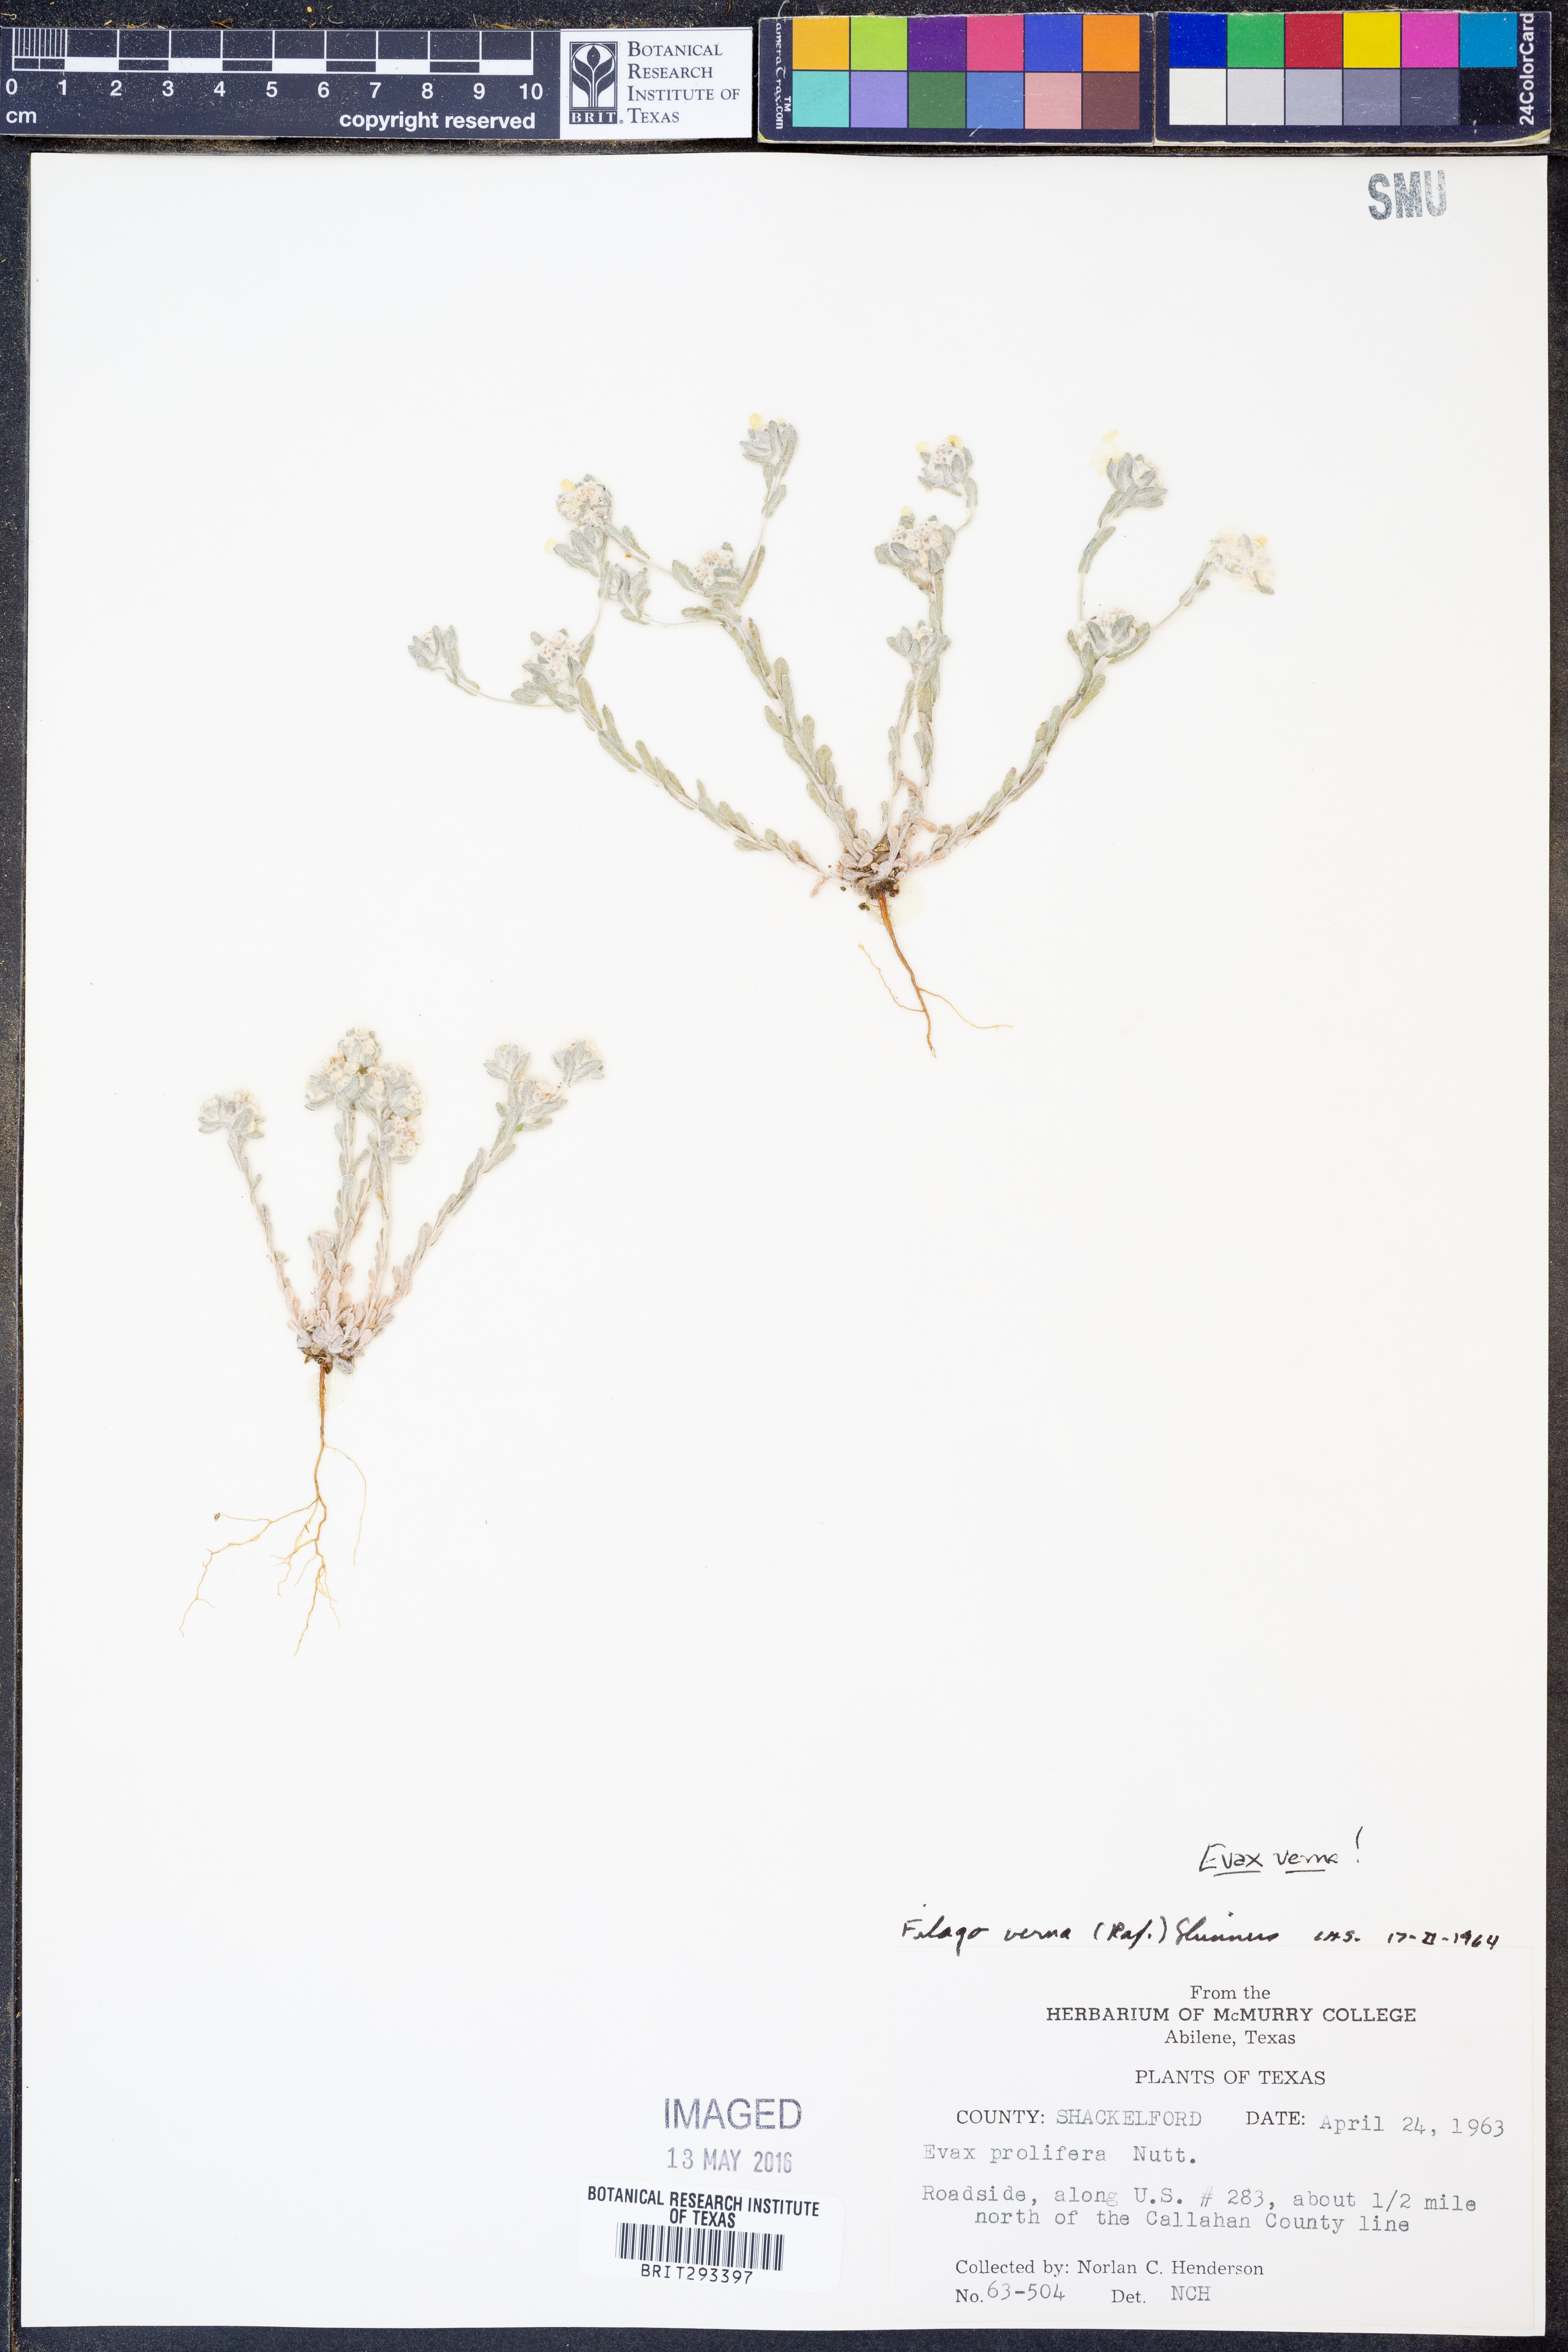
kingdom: Plantae
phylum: Tracheophyta
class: Magnoliopsida
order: Asterales
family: Asteraceae
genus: Diaperia
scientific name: Diaperia verna
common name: Many-stem rabbit-tobacco
